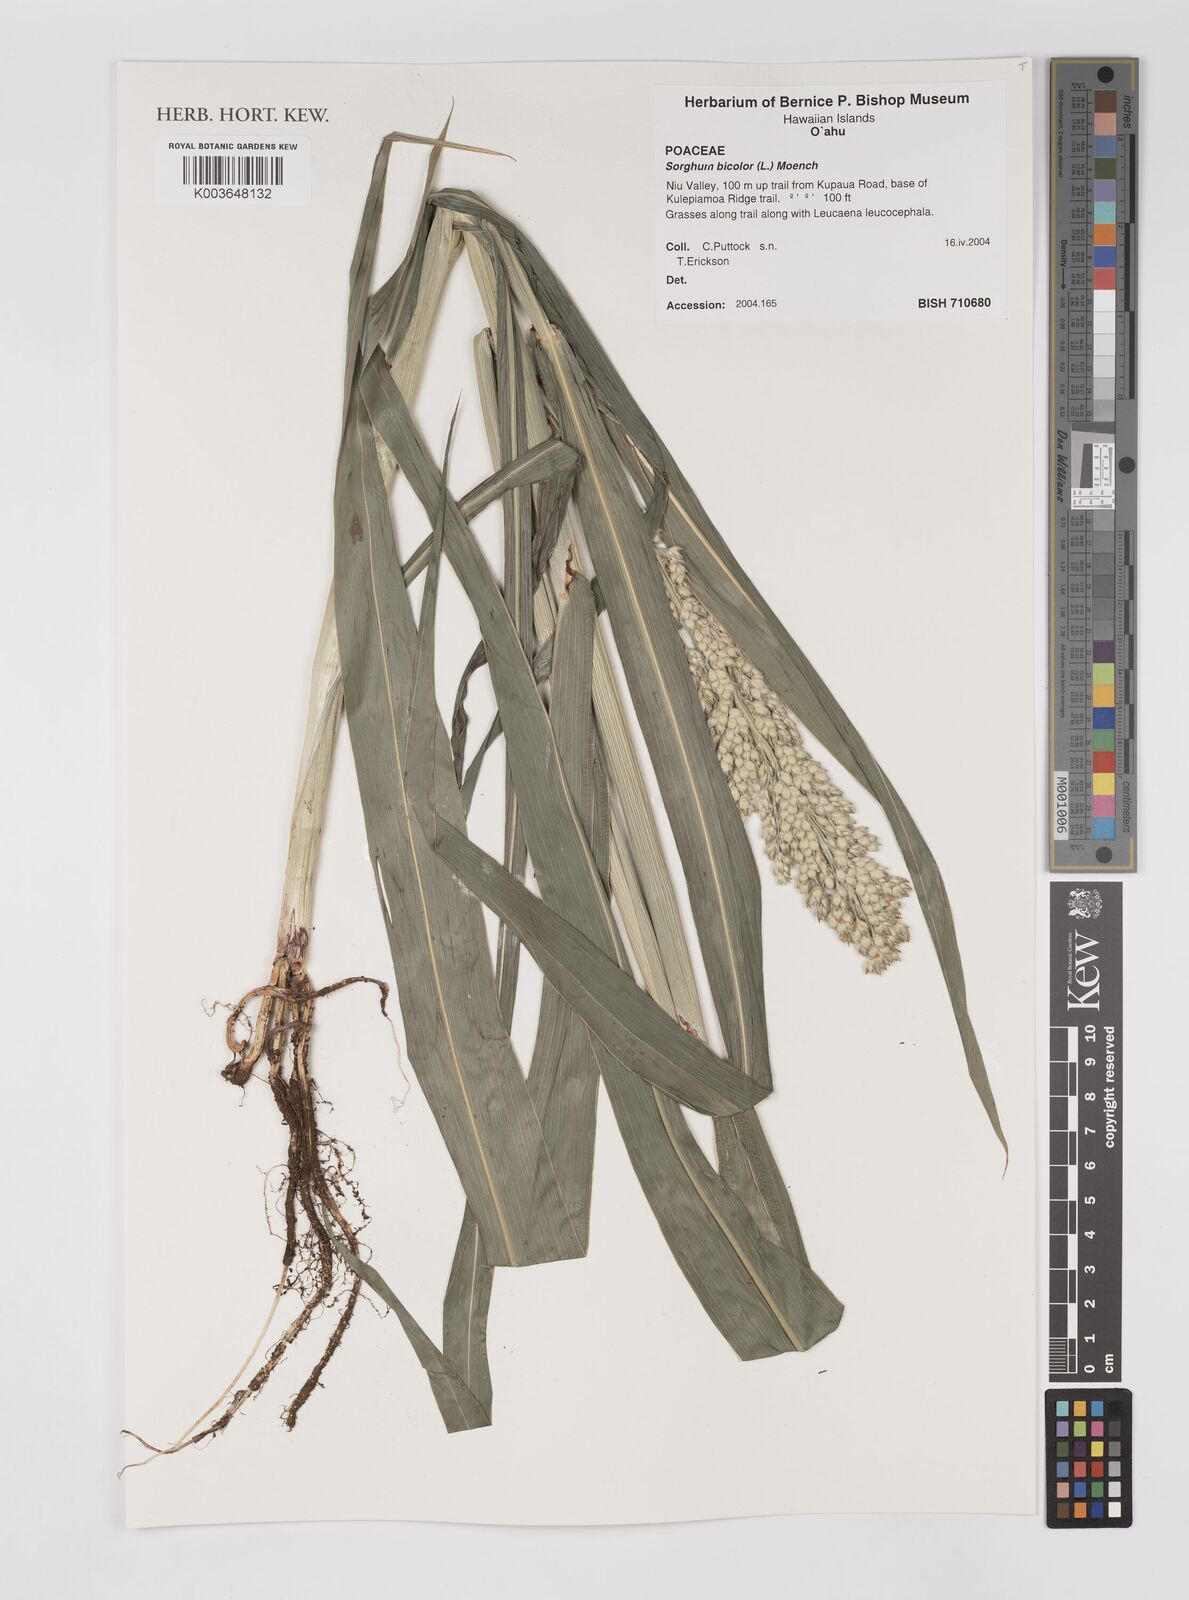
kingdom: Plantae
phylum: Tracheophyta
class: Liliopsida
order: Poales
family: Poaceae
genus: Sorghum
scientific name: Sorghum bicolor
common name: Sorghum
